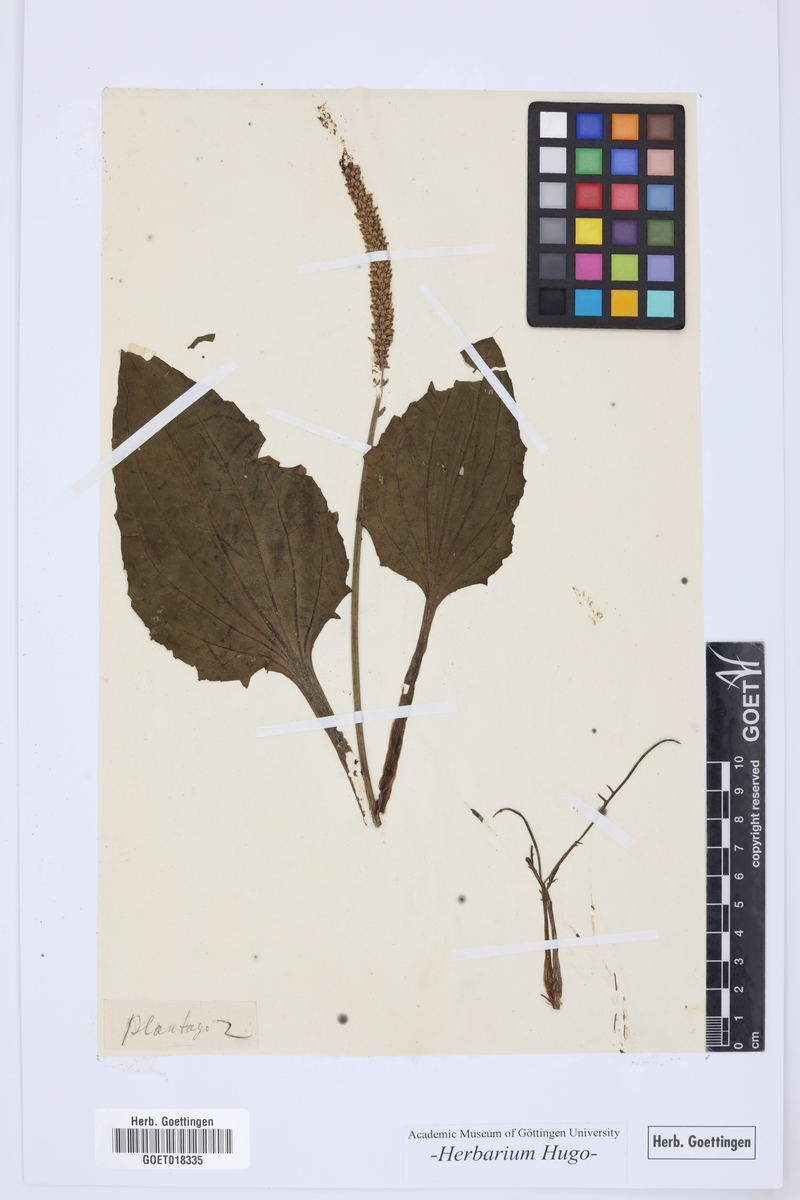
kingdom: Plantae
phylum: Tracheophyta
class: Magnoliopsida
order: Lamiales
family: Plantaginaceae
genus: Plantago
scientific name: Plantago
